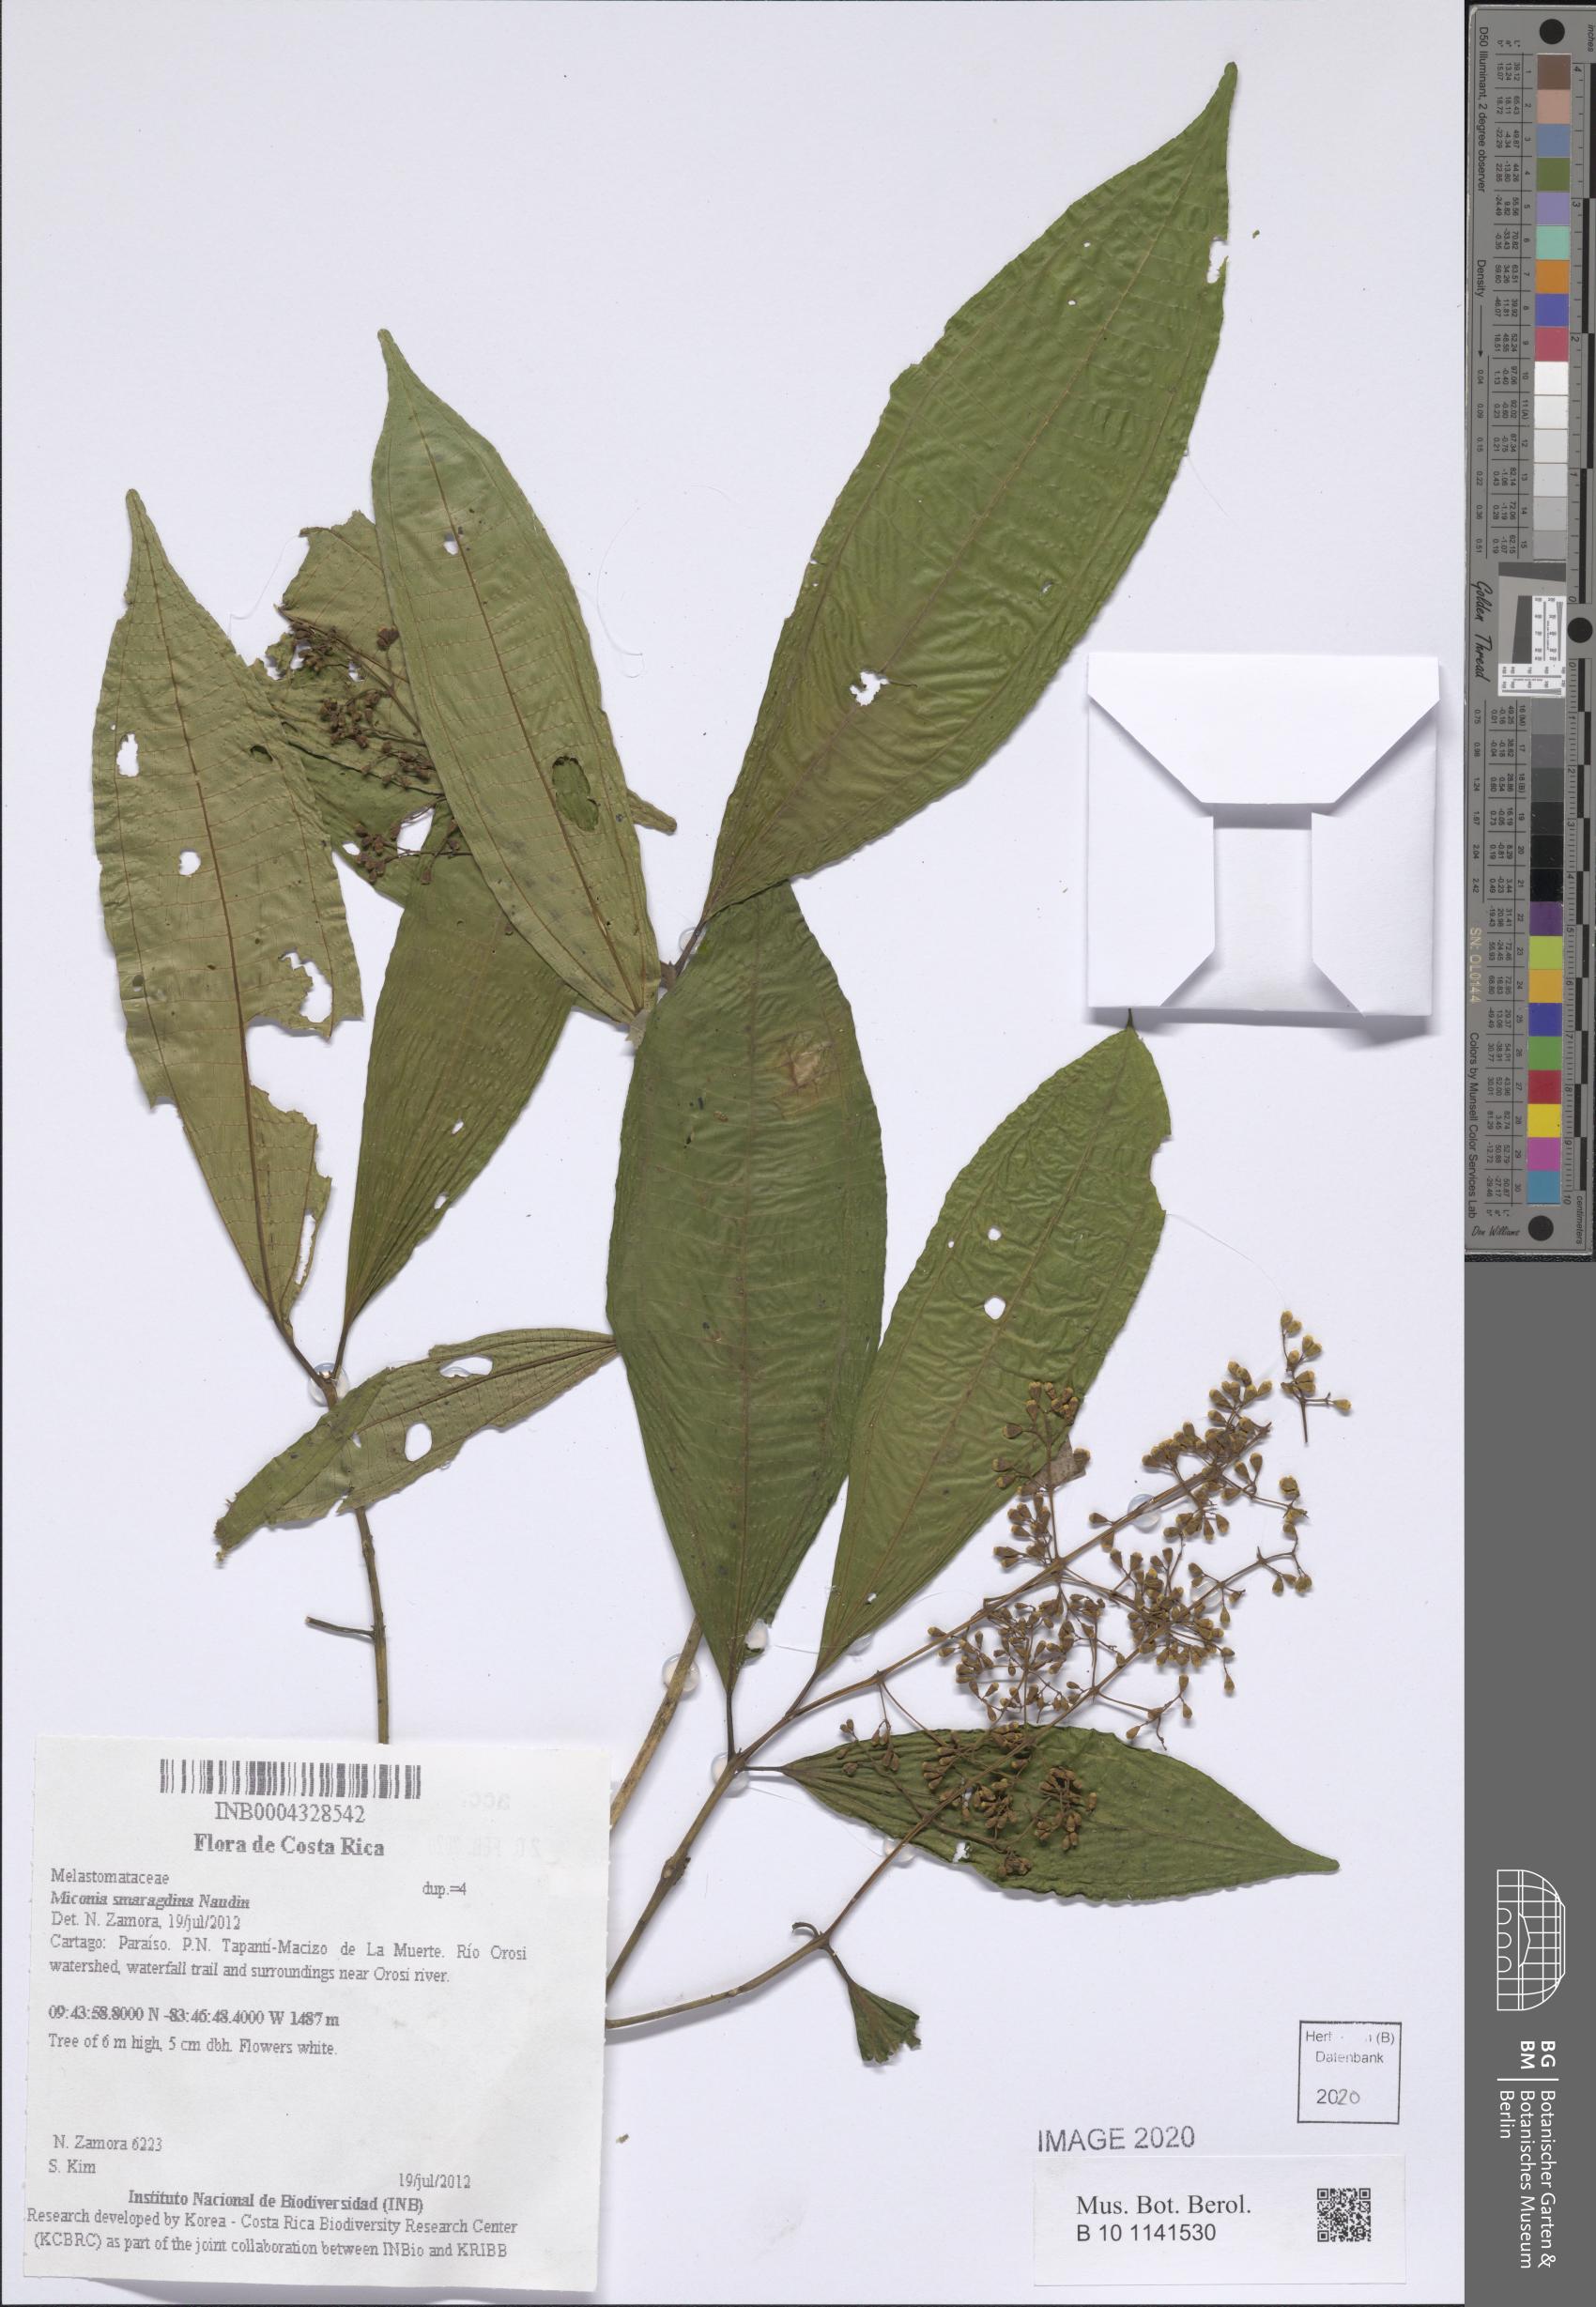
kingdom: Plantae
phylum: Tracheophyta
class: Magnoliopsida
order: Myrtales
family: Melastomataceae
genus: Miconia
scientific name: Miconia smaragdina
